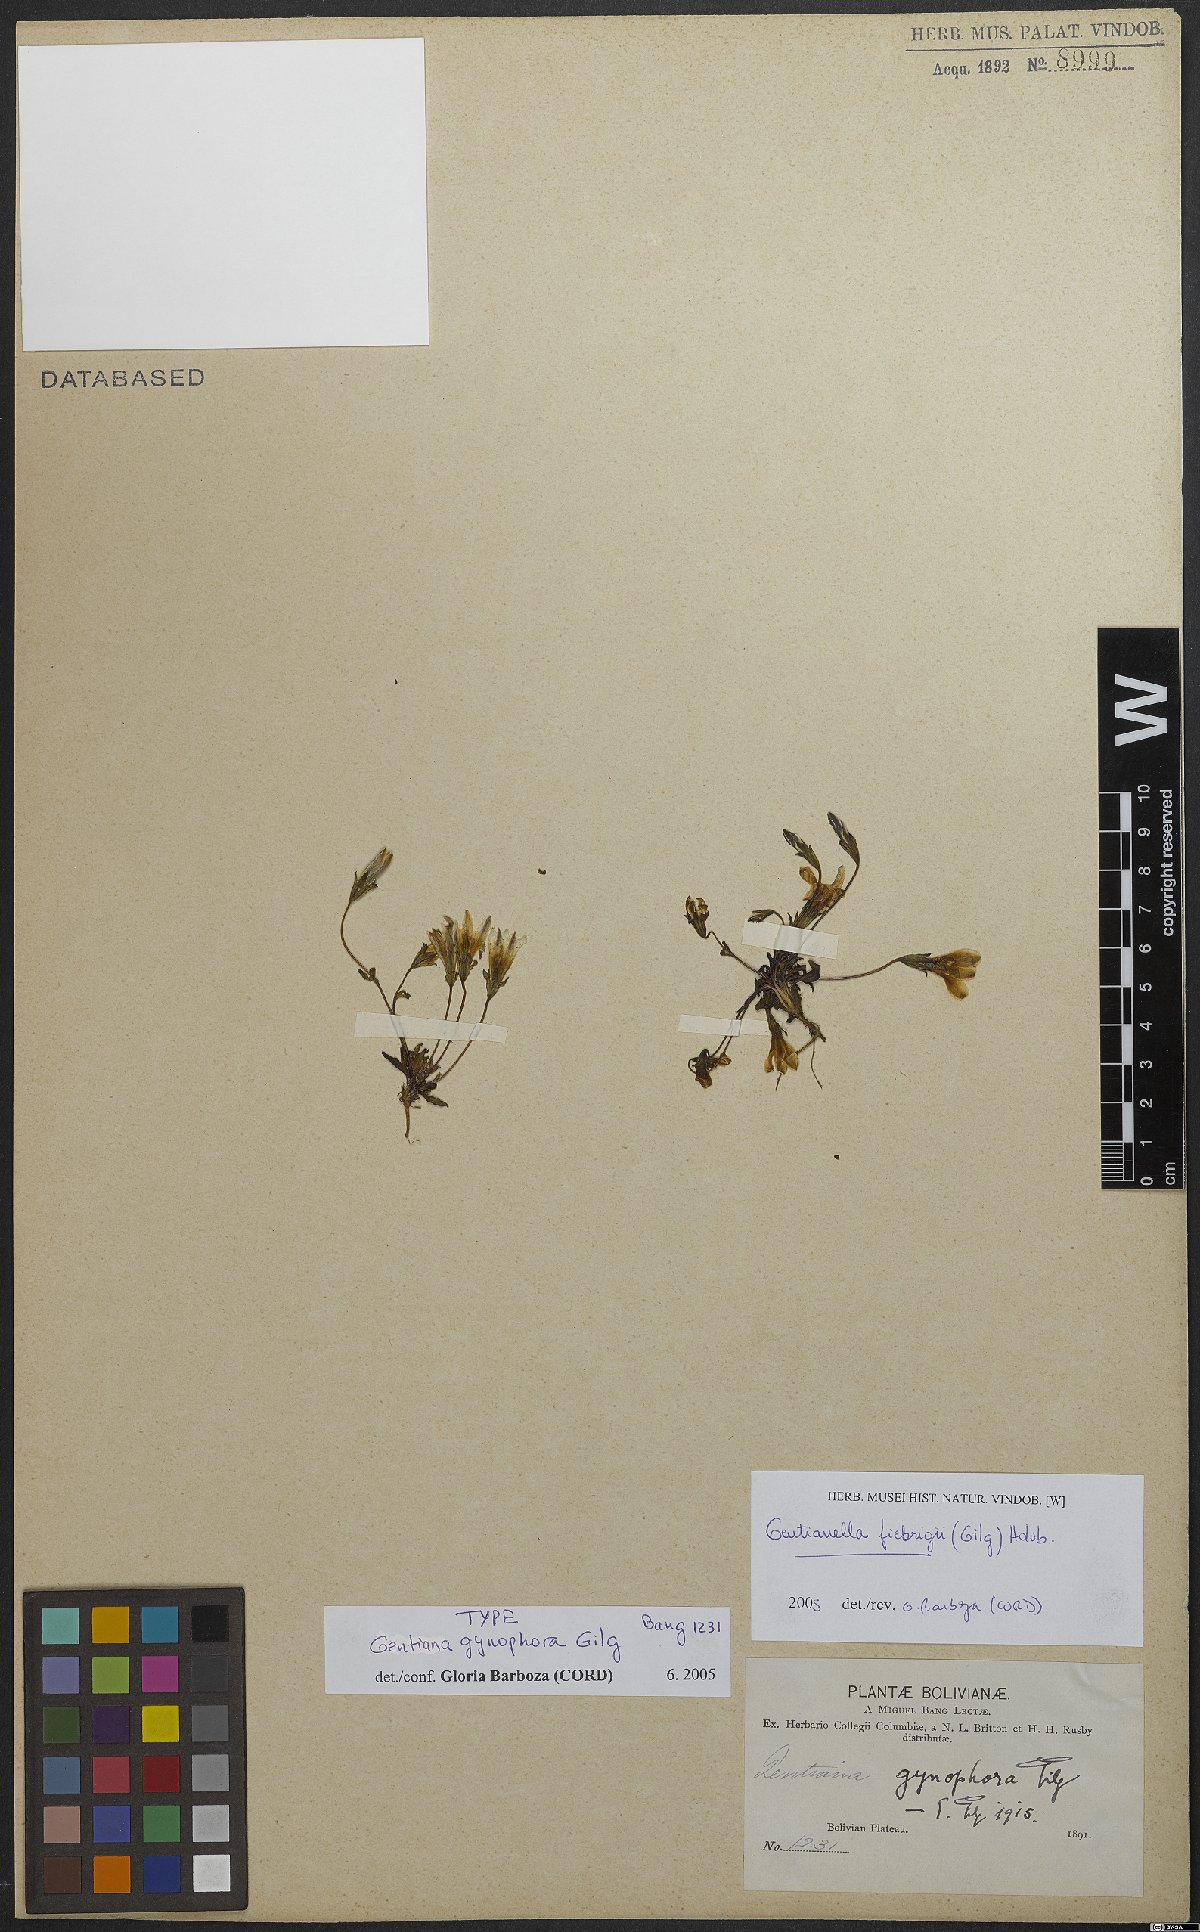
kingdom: Plantae
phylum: Tracheophyta
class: Magnoliopsida
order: Gentianales
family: Gentianaceae
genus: Gentianella
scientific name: Gentianella fiebrigii
